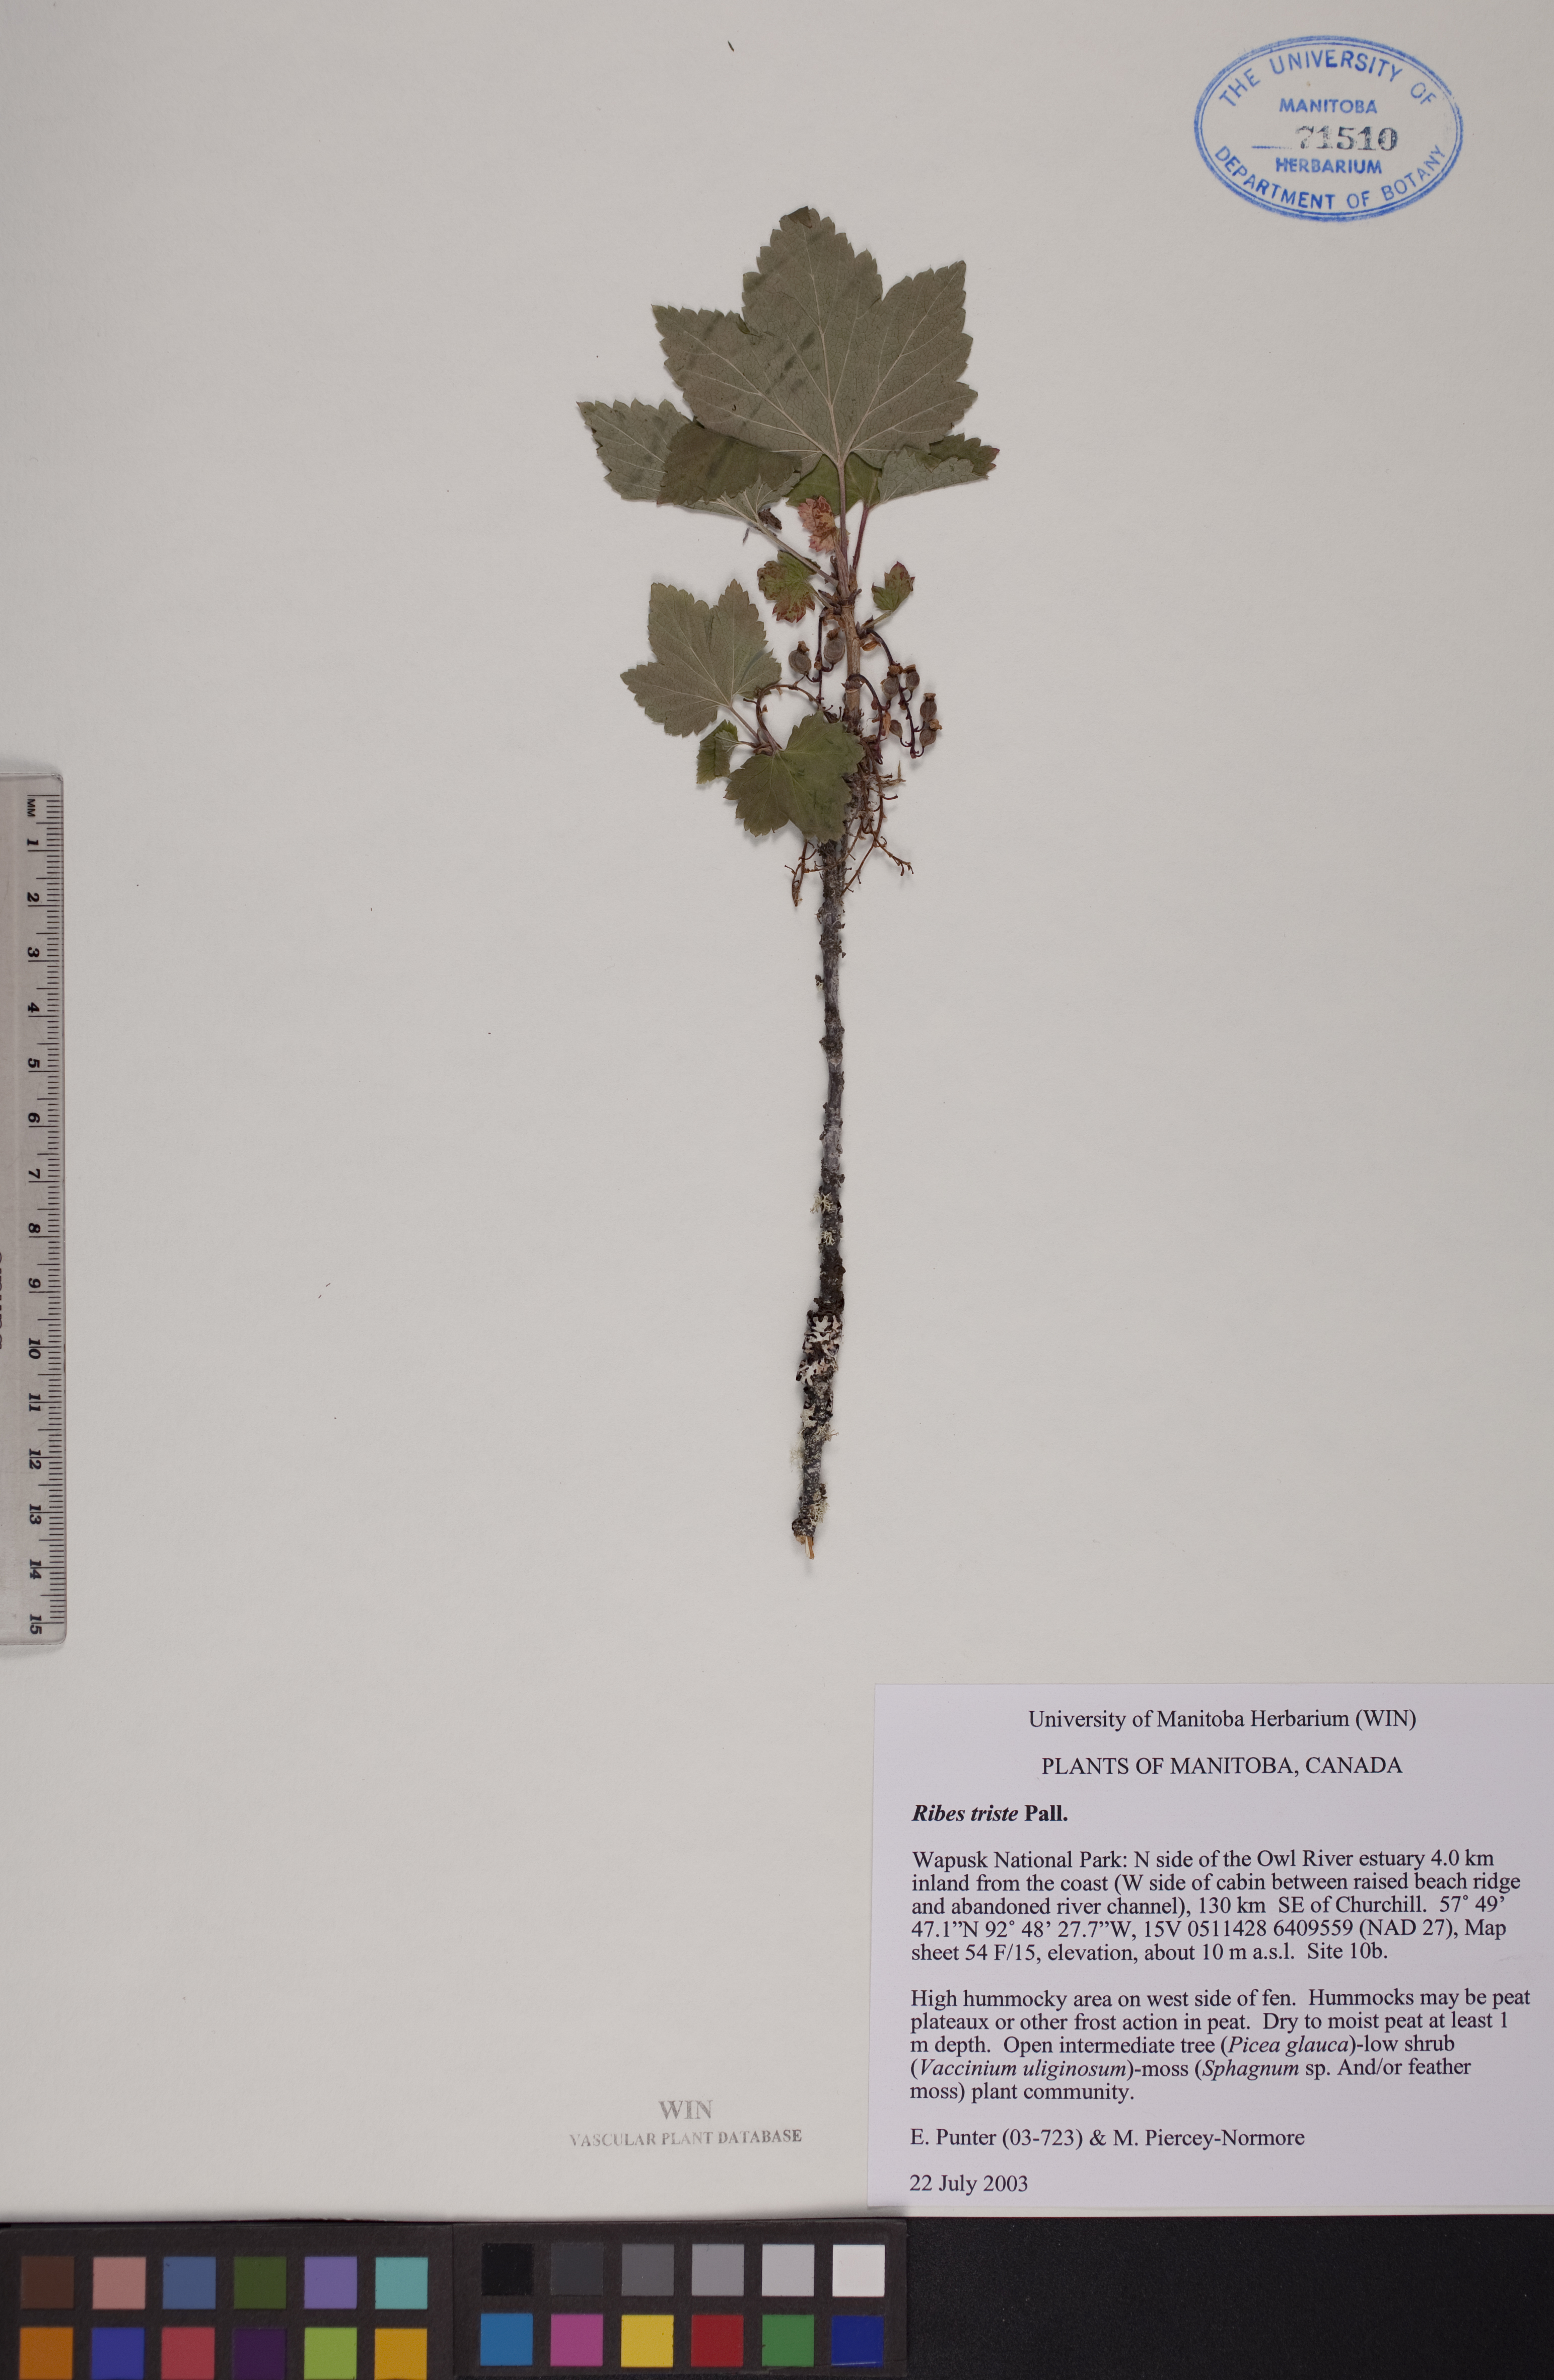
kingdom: Plantae
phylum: Tracheophyta
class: Magnoliopsida
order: Saxifragales
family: Grossulariaceae
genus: Ribes
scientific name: Ribes triste
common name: Swamp red currant
